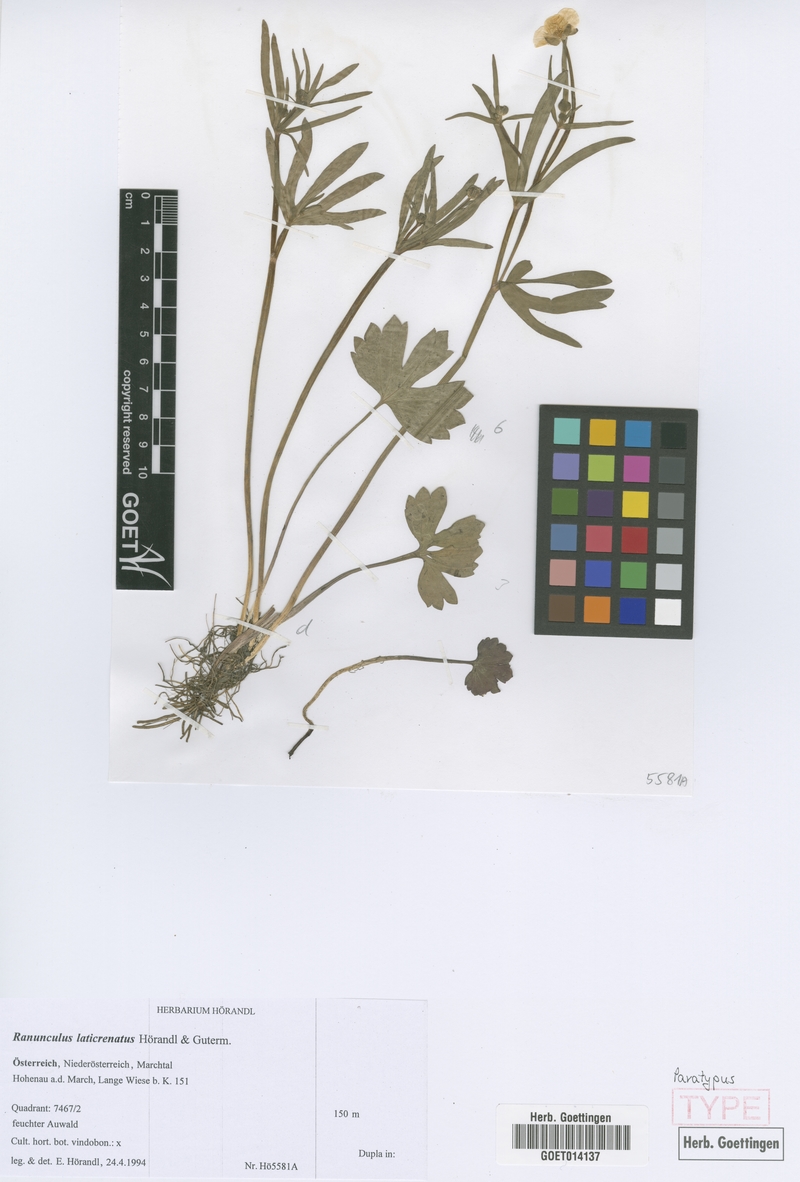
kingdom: Plantae
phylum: Tracheophyta
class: Magnoliopsida
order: Ranunculales
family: Ranunculaceae
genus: Ranunculus
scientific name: Ranunculus laticrenatus
